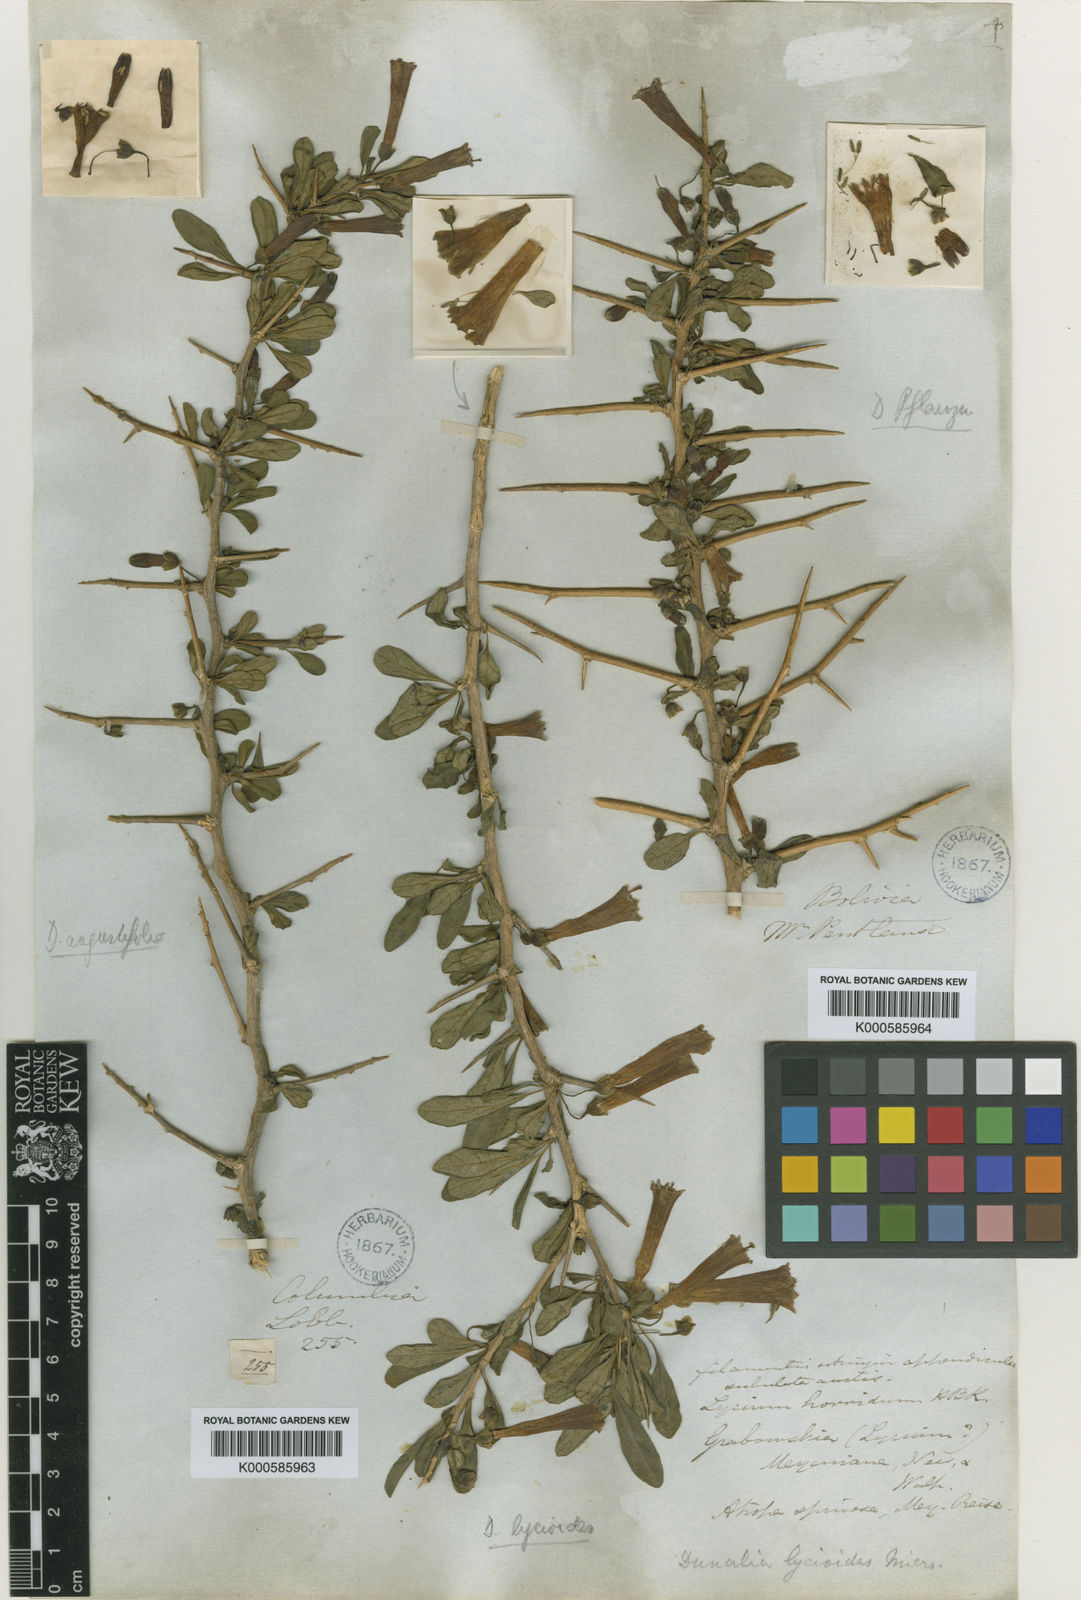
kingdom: Plantae
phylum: Tracheophyta
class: Magnoliopsida
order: Solanales
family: Solanaceae
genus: Dunalia
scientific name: Dunalia spinosa
